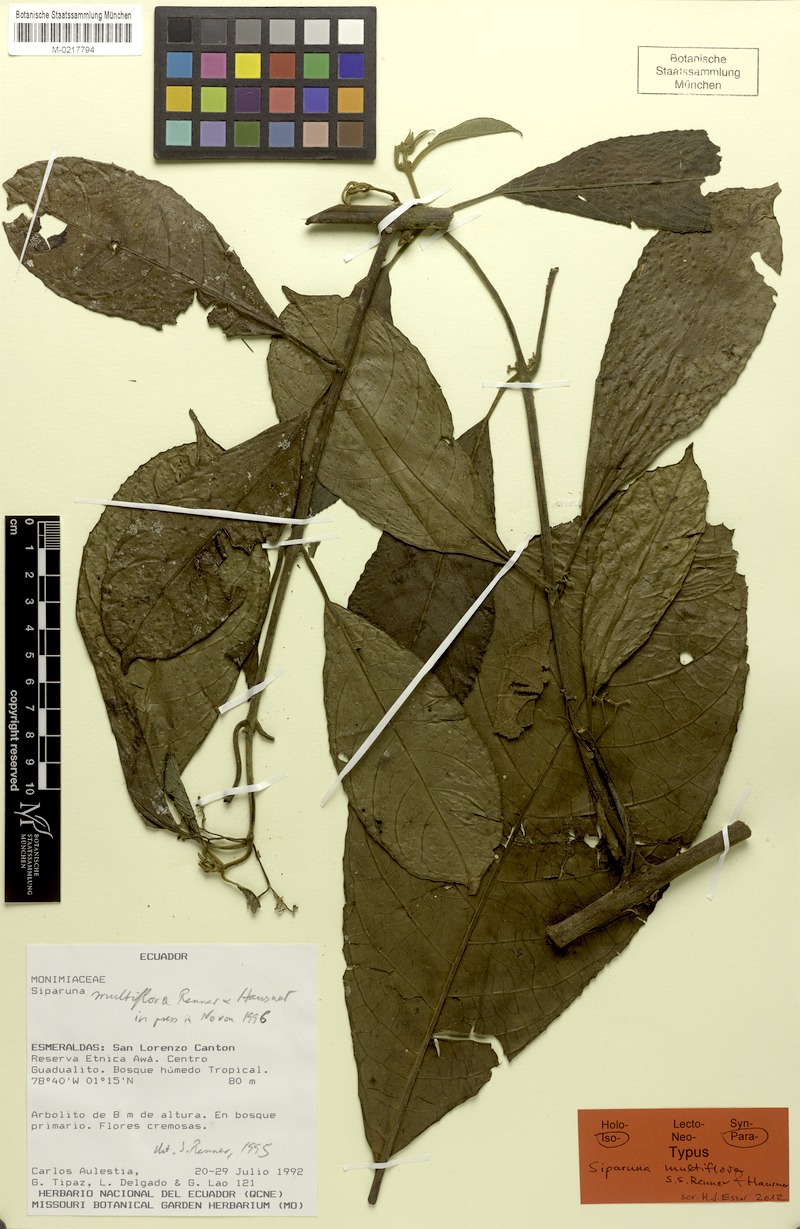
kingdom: Plantae
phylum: Tracheophyta
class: Magnoliopsida
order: Laurales
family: Siparunaceae
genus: Siparuna
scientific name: Siparuna multiflora
